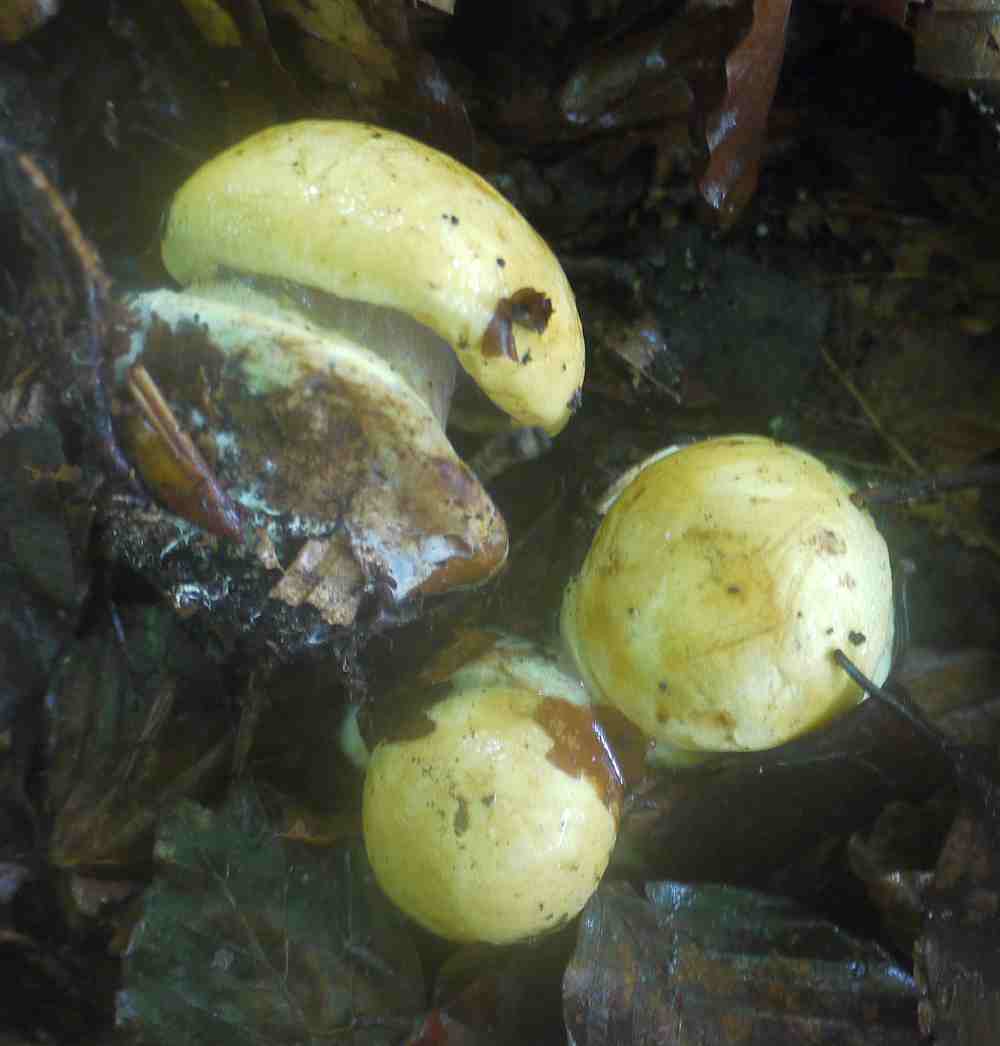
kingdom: Fungi
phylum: Basidiomycota
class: Agaricomycetes
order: Agaricales
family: Cortinariaceae
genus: Calonarius
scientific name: Calonarius citrinus
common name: citrongul slørhat
